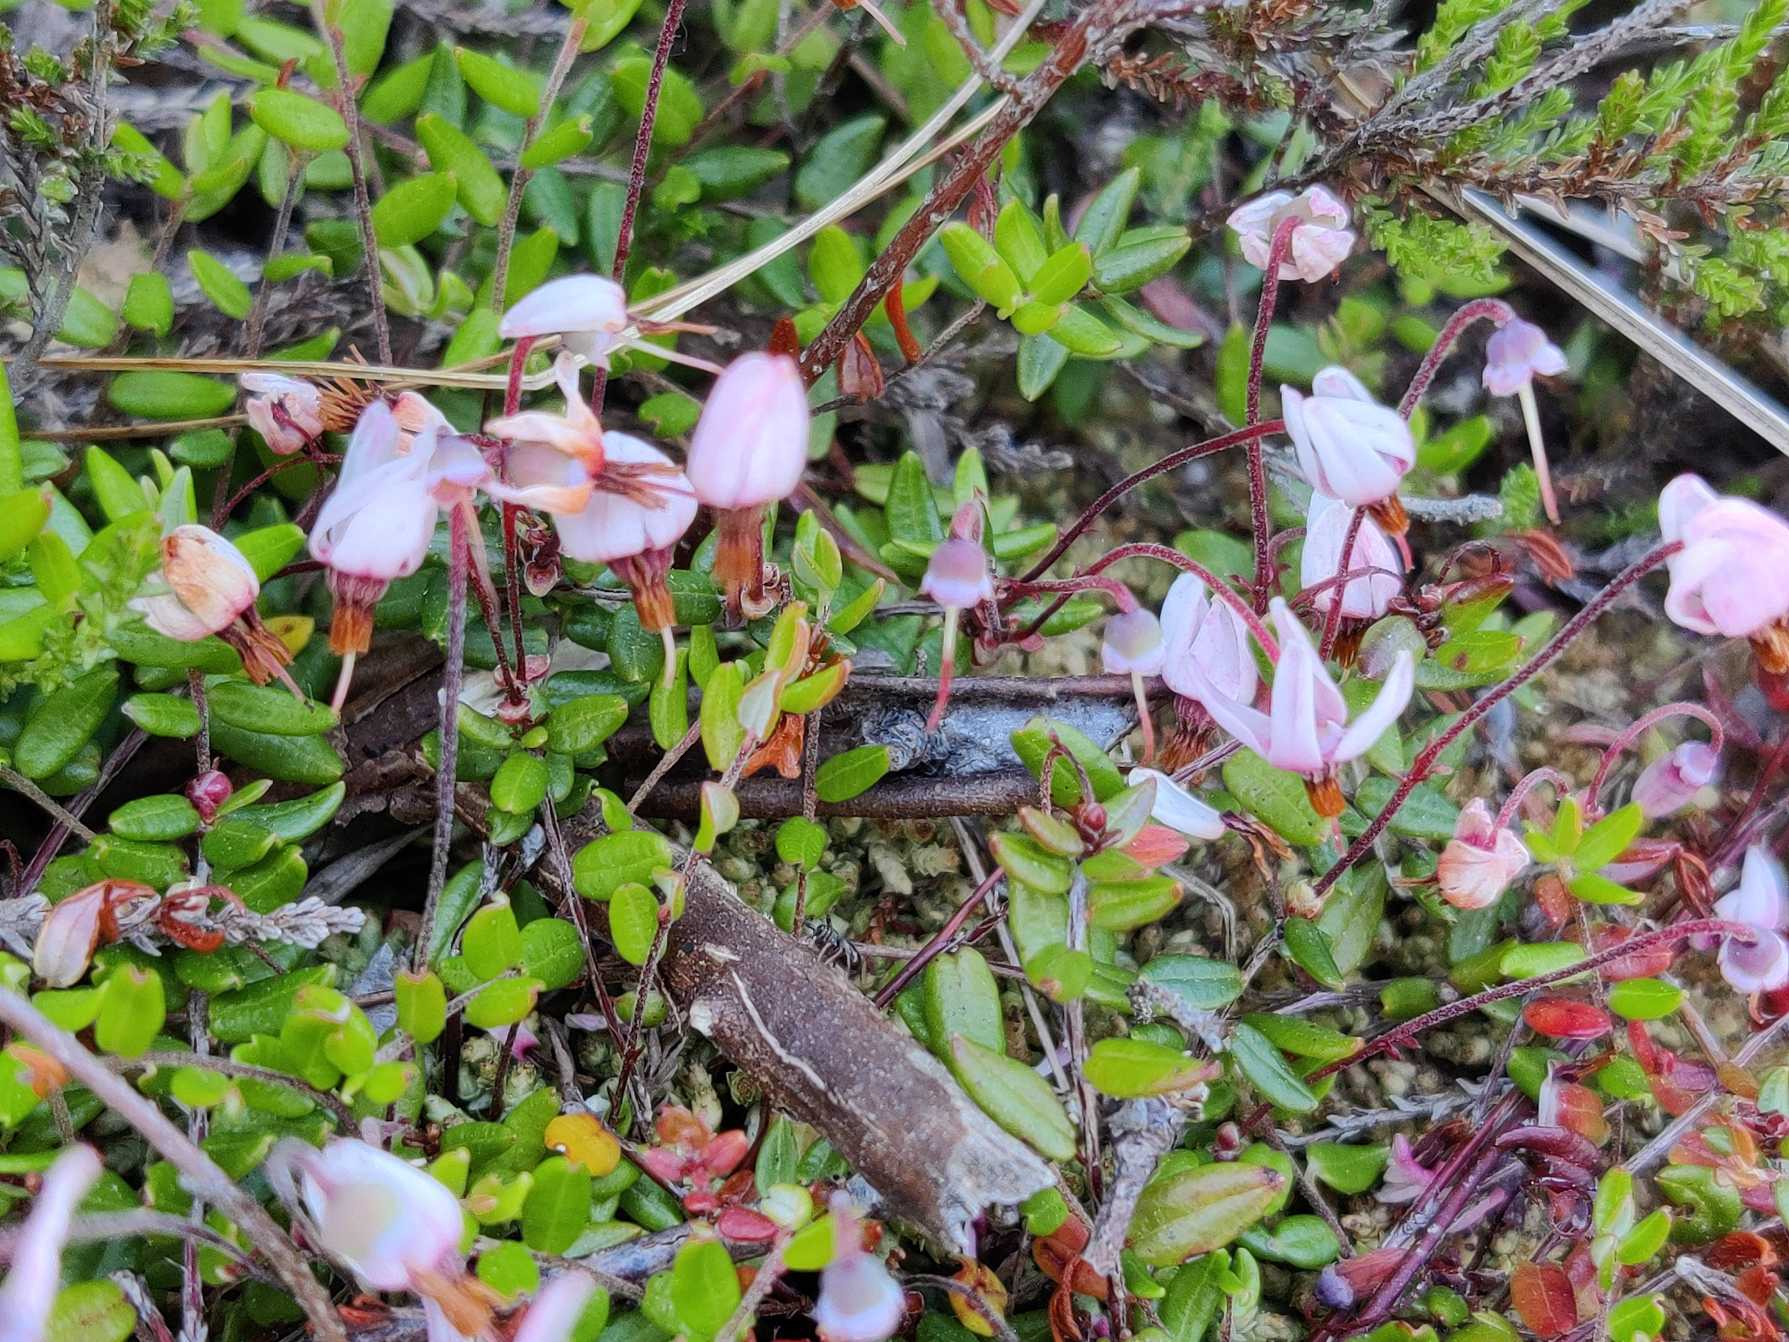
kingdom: Plantae
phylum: Tracheophyta
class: Magnoliopsida
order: Ericales
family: Ericaceae
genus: Vaccinium
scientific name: Vaccinium oxycoccos
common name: Tranebær
